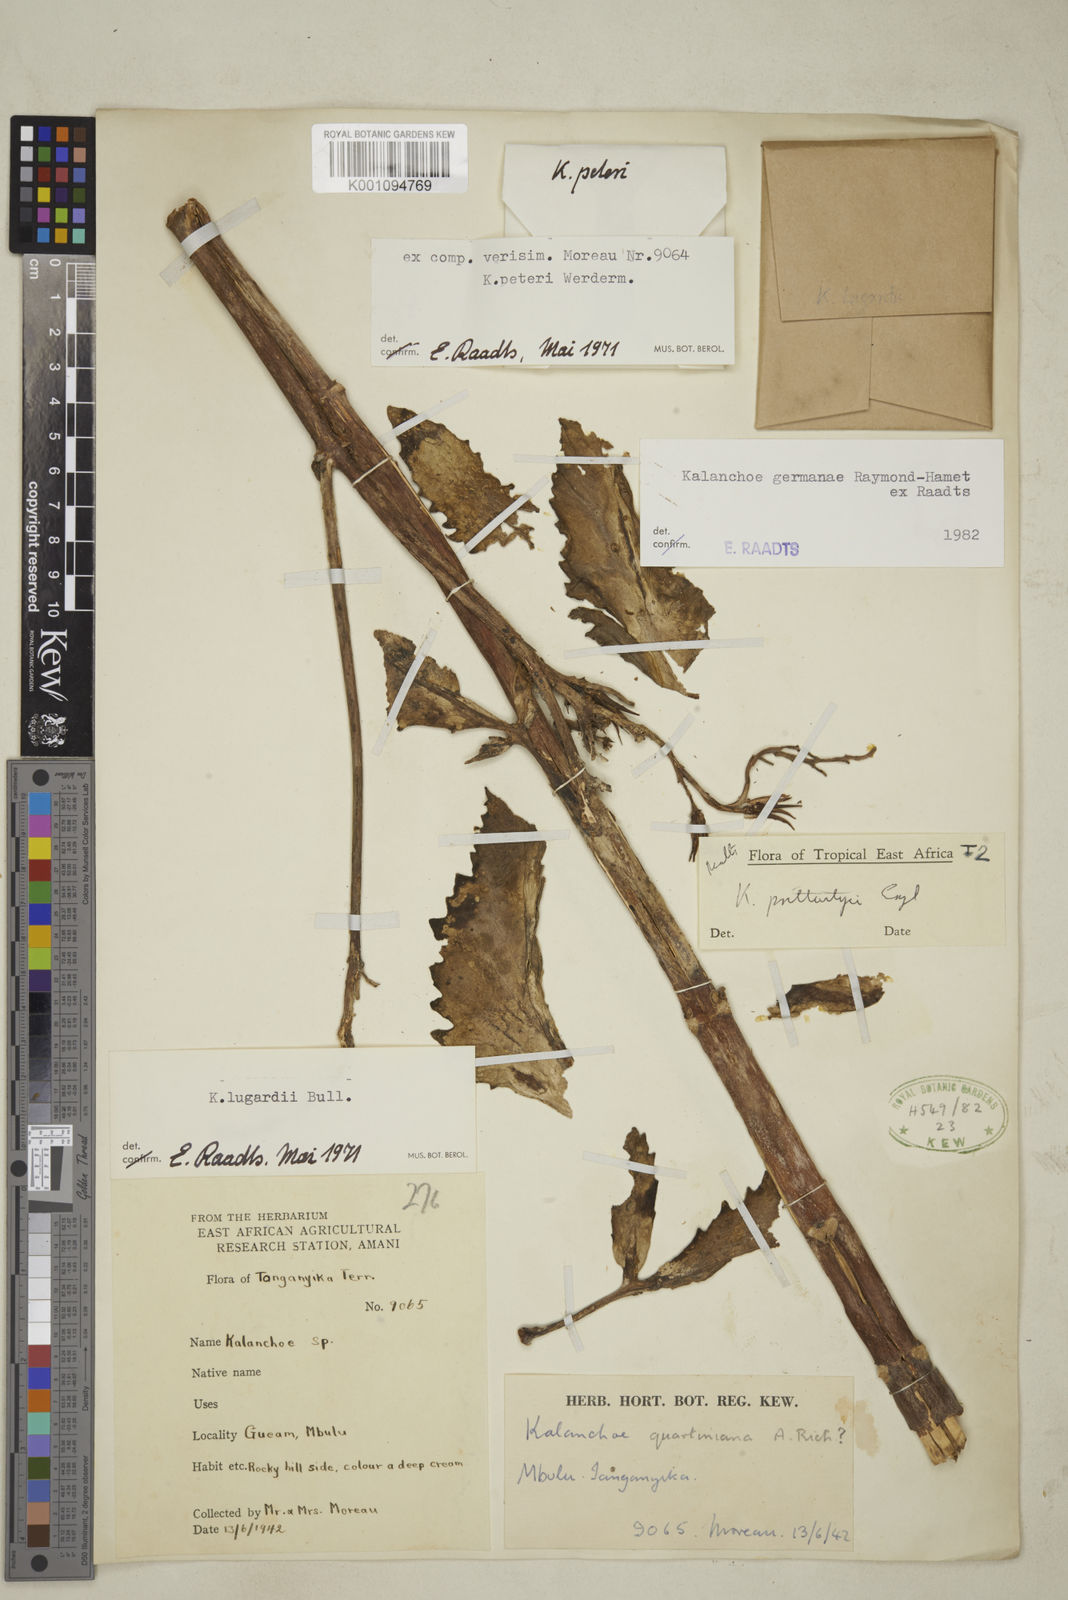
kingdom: Plantae
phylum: Tracheophyta
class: Magnoliopsida
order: Saxifragales
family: Crassulaceae
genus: Kalanchoe
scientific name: Kalanchoe germanae
